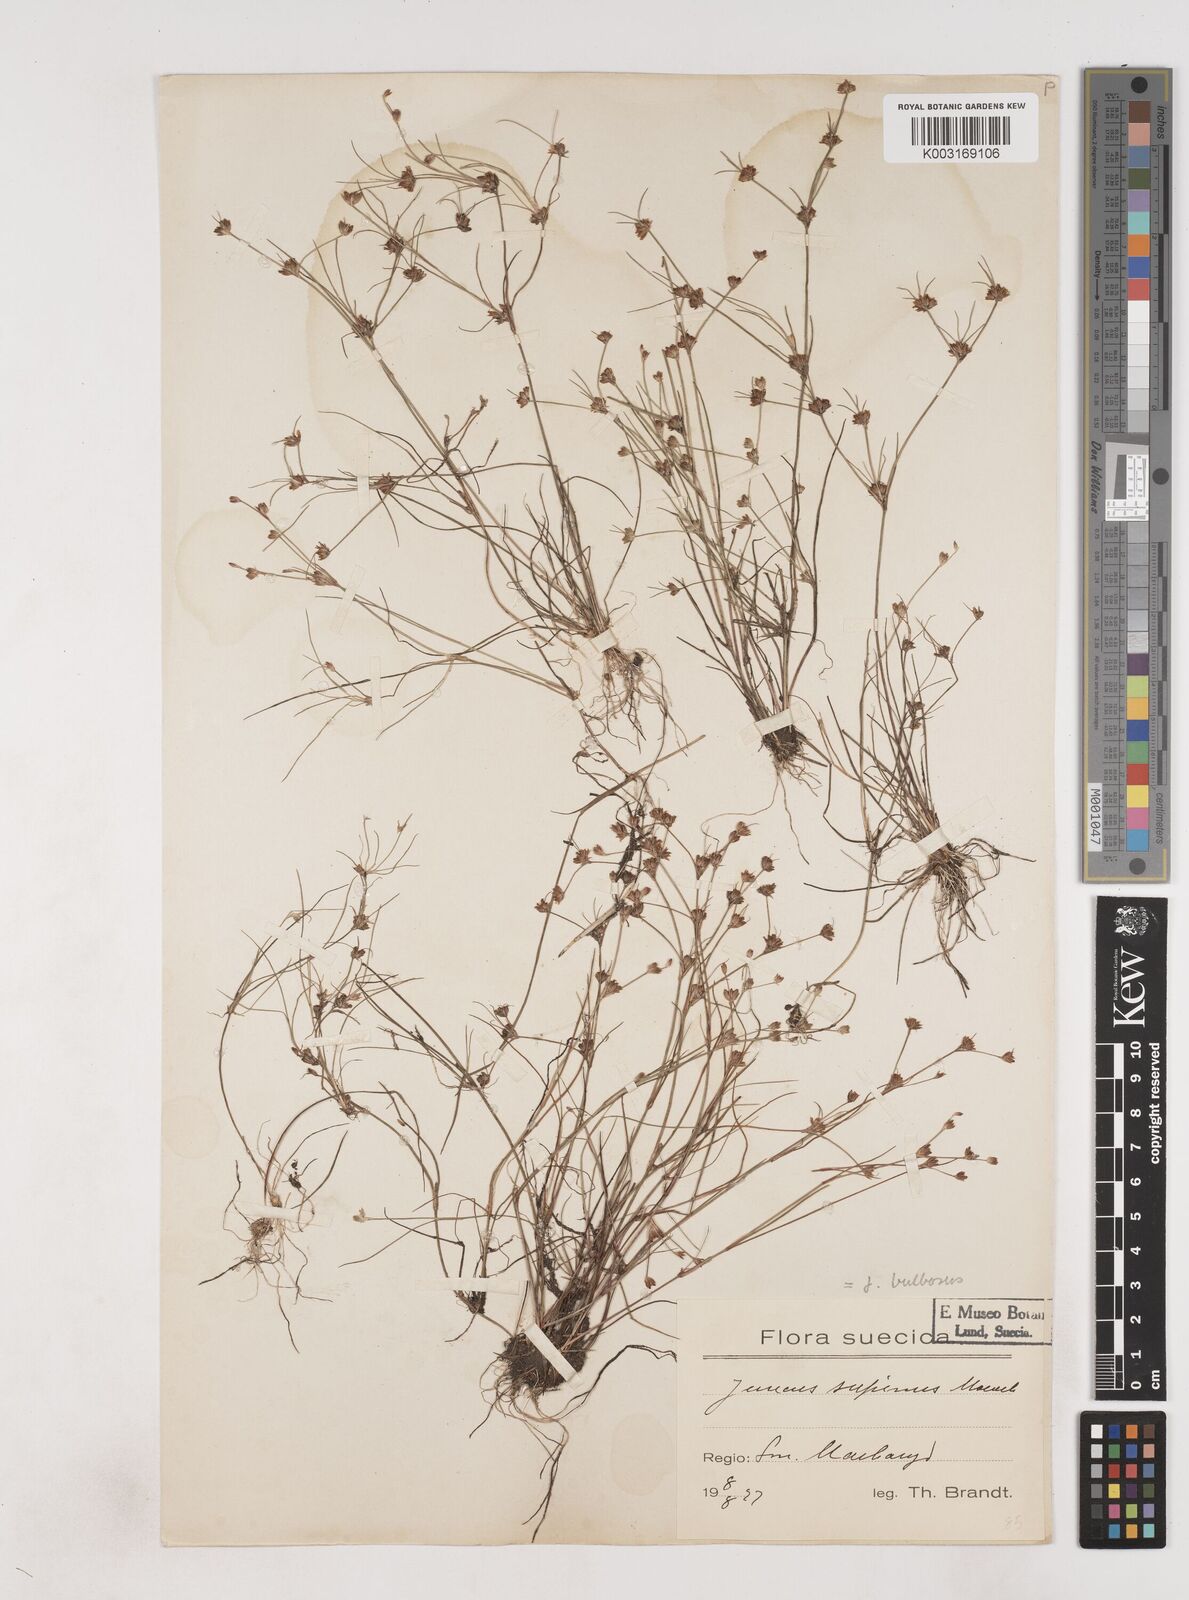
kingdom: Plantae
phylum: Tracheophyta
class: Liliopsida
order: Poales
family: Juncaceae
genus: Juncus
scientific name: Juncus bulbosus
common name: Bulbous rush
